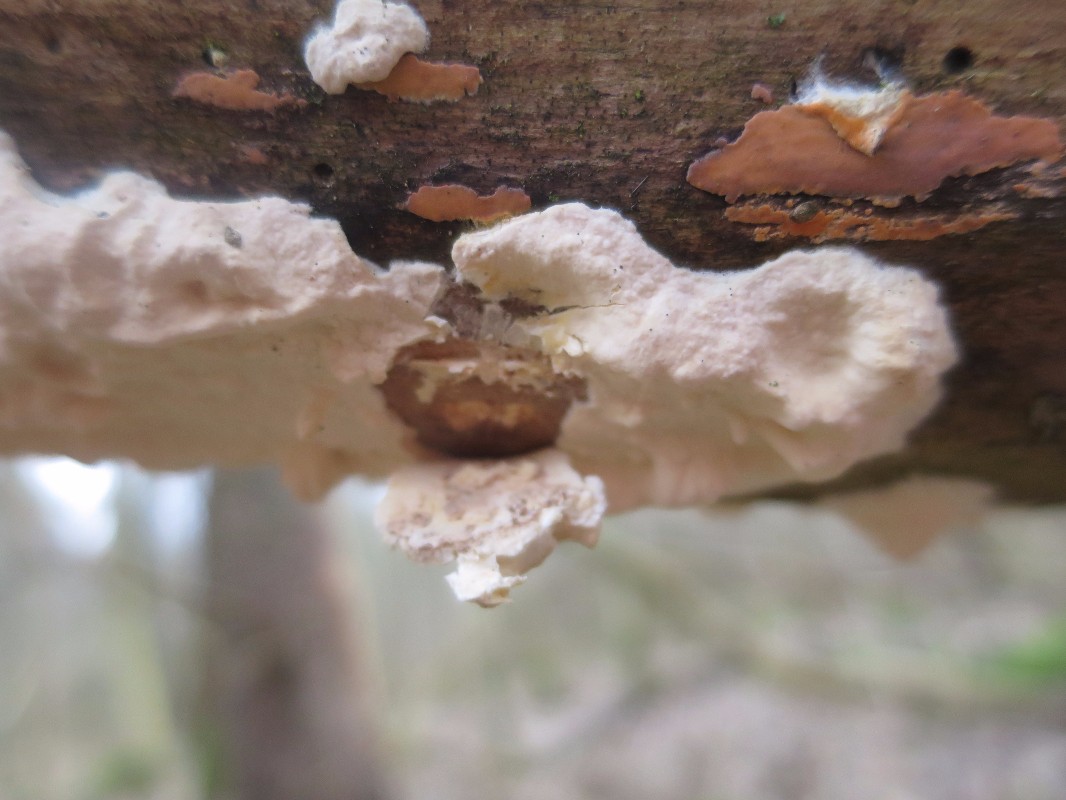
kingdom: Fungi
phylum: Basidiomycota
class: Agaricomycetes
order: Polyporales
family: Irpicaceae
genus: Byssomerulius
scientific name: Byssomerulius
